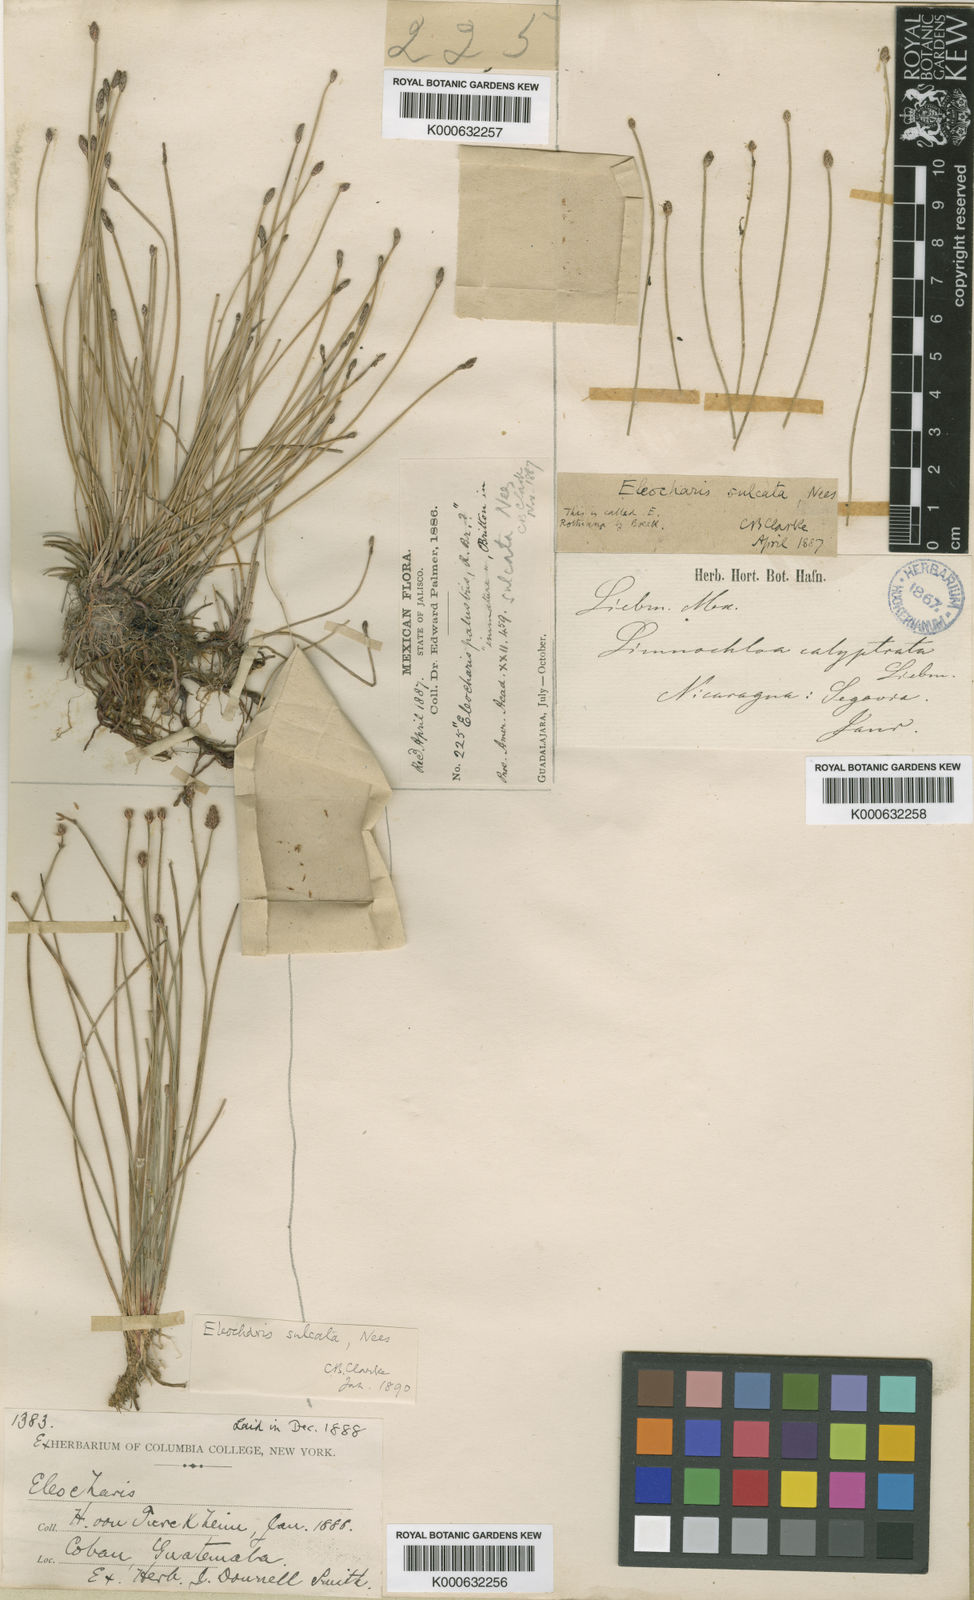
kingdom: Plantae
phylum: Tracheophyta
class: Liliopsida
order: Poales
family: Cyperaceae
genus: Eleocharis
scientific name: Eleocharis filiculmis
